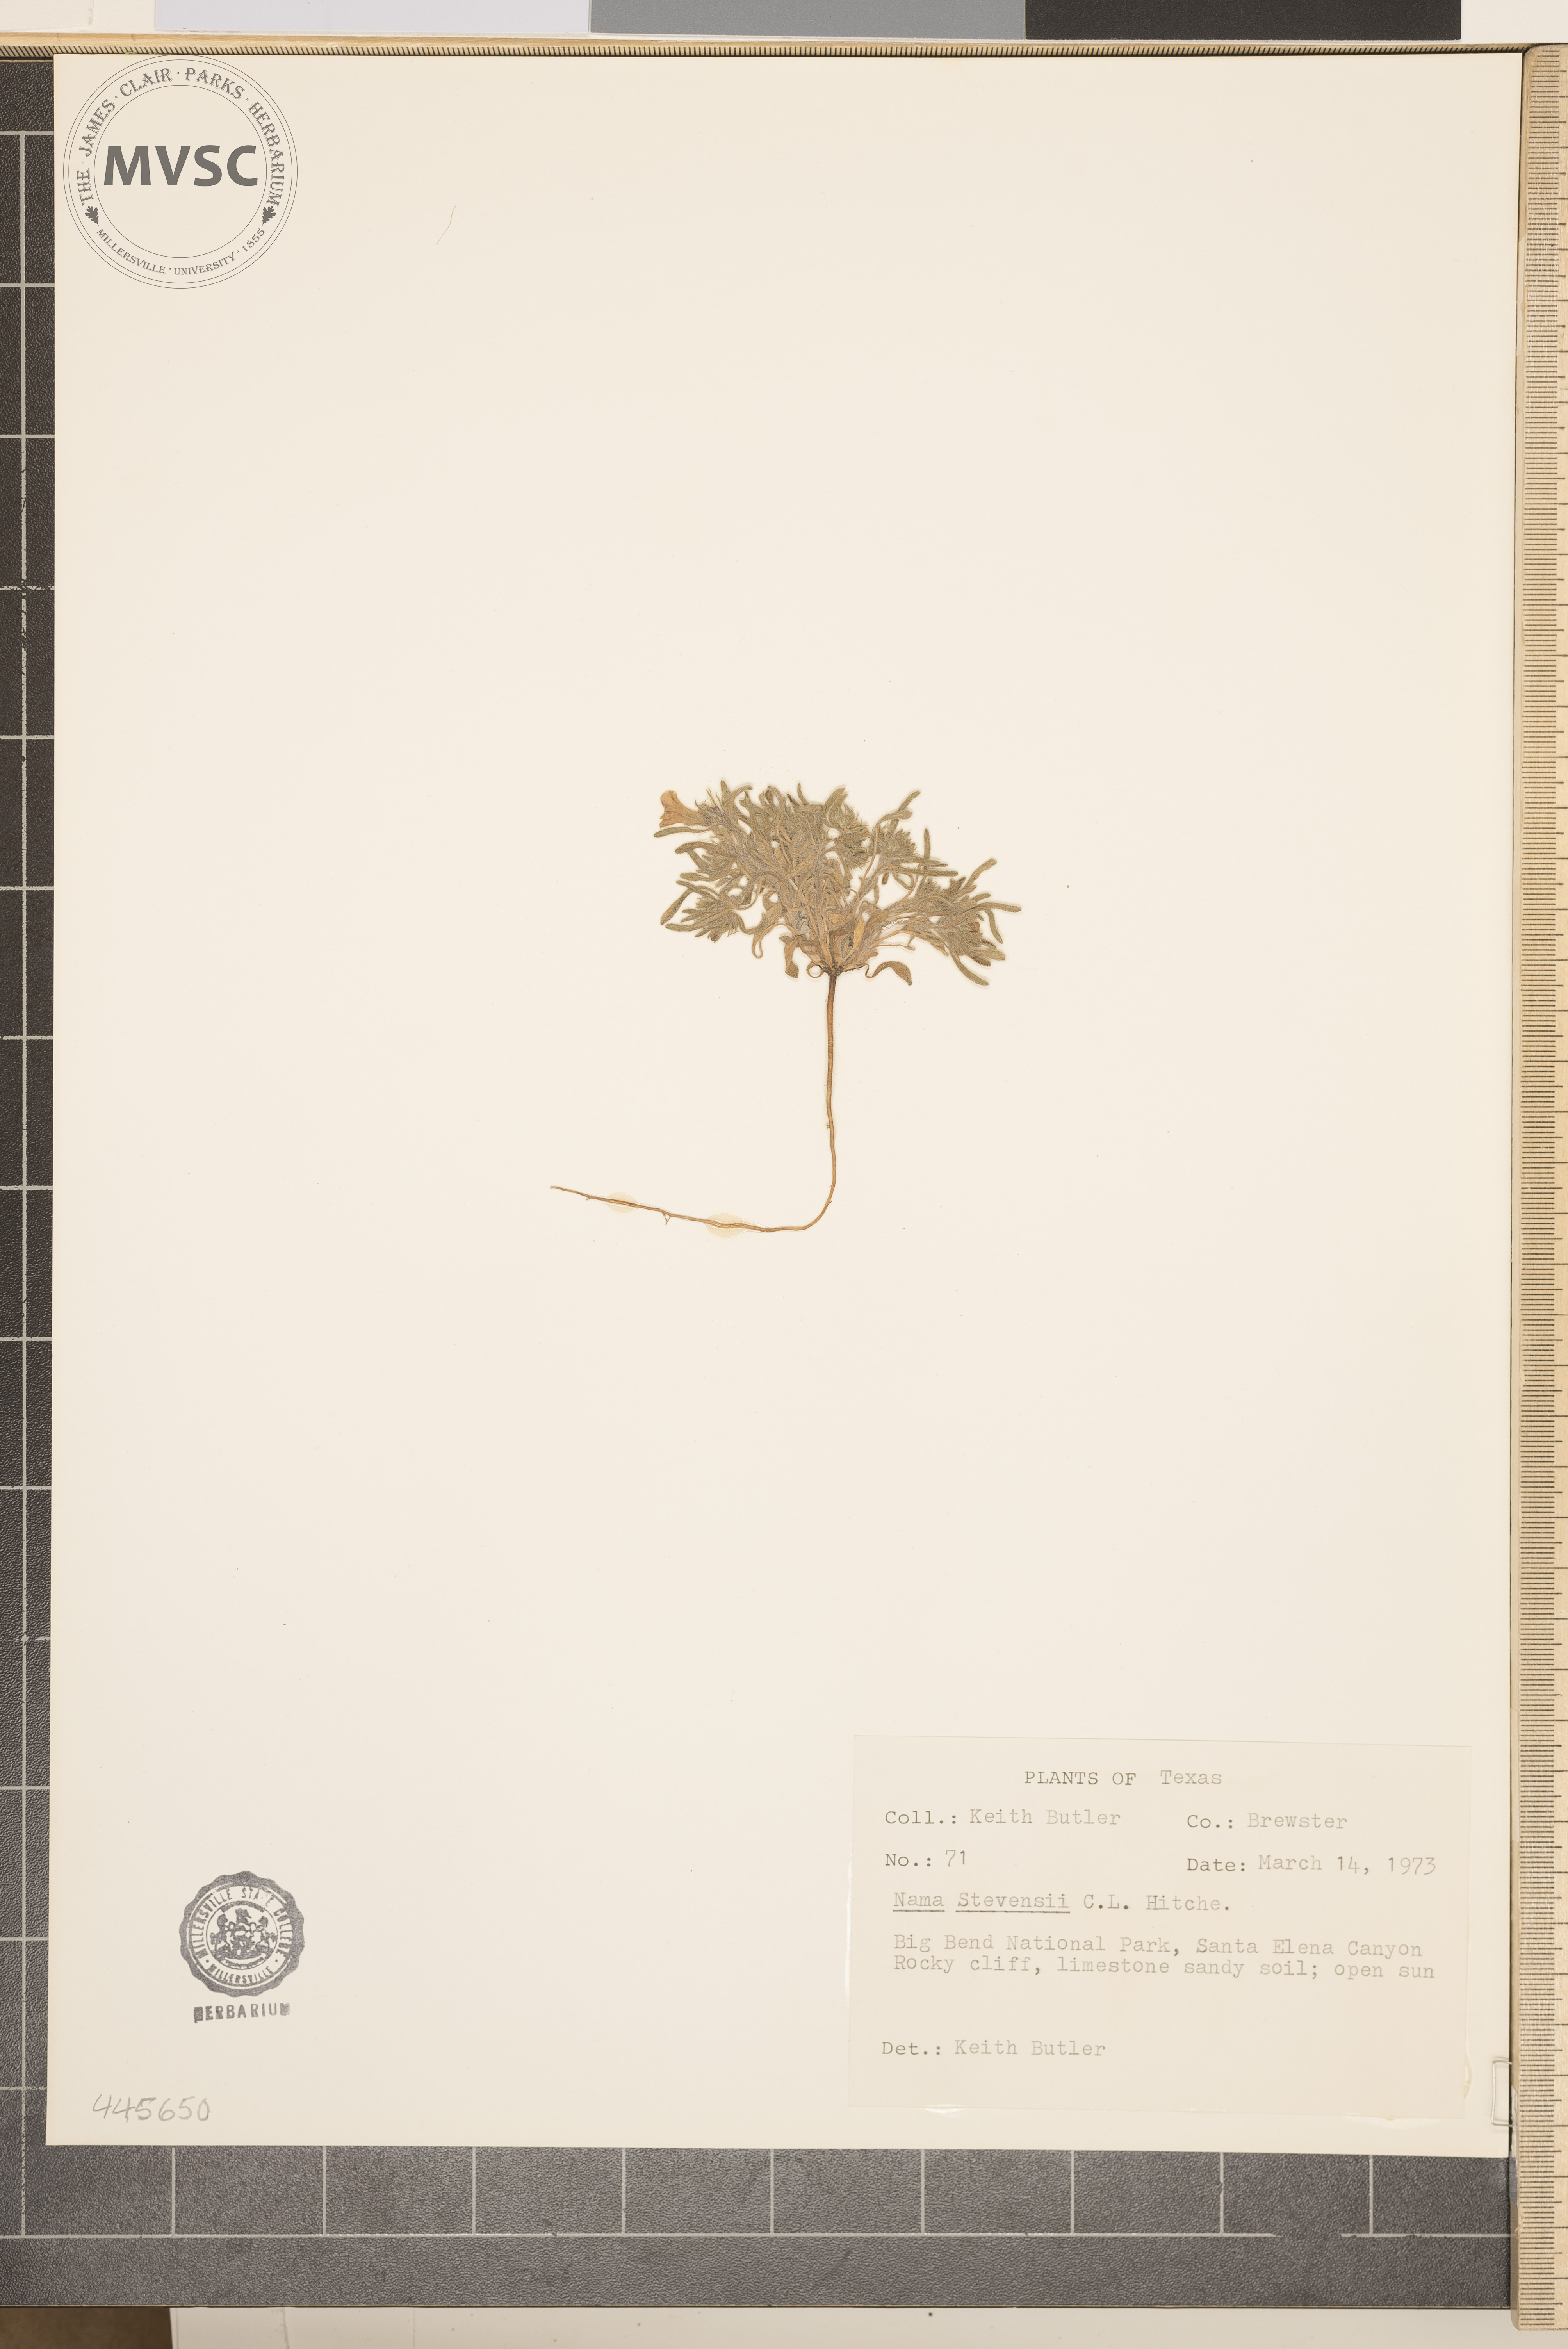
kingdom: Plantae
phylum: Tracheophyta
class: Magnoliopsida
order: Boraginales
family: Namaceae
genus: Nama
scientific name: Nama
